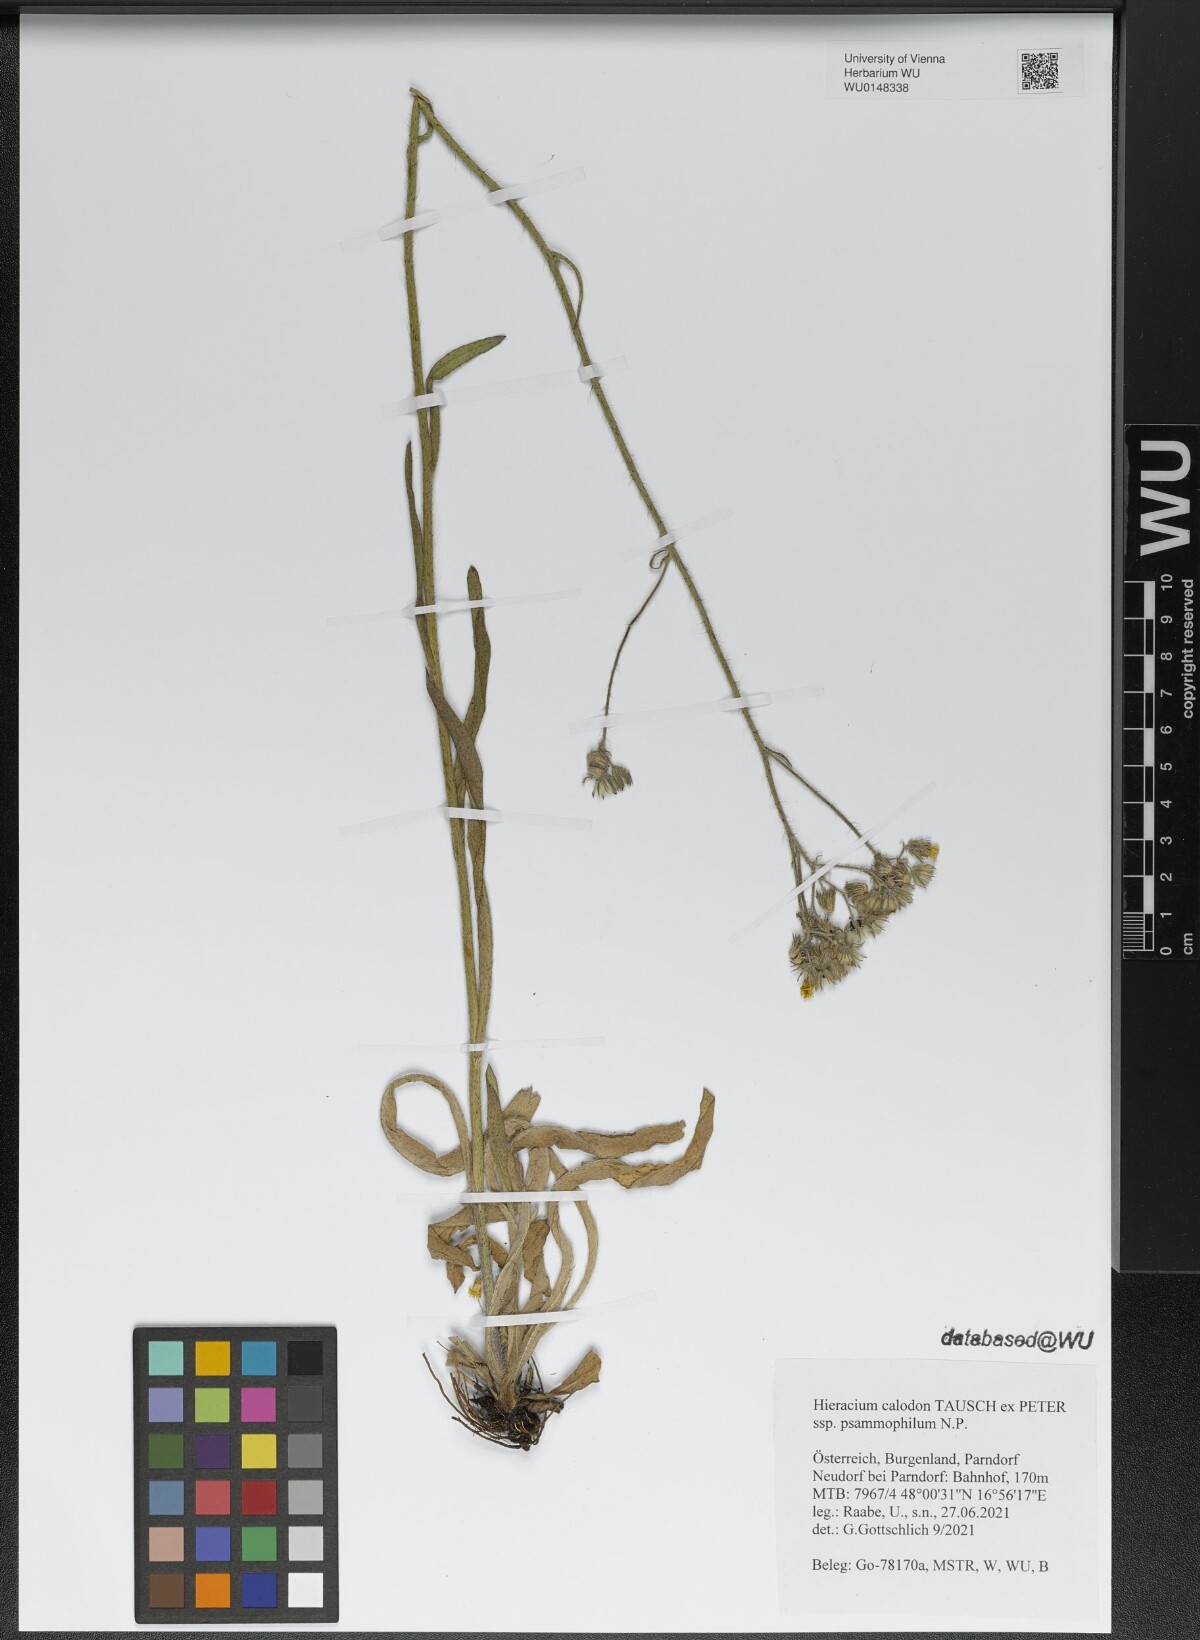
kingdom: Plantae
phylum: Tracheophyta
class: Magnoliopsida
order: Asterales
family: Asteraceae
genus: Pilosella
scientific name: Pilosella calodon
